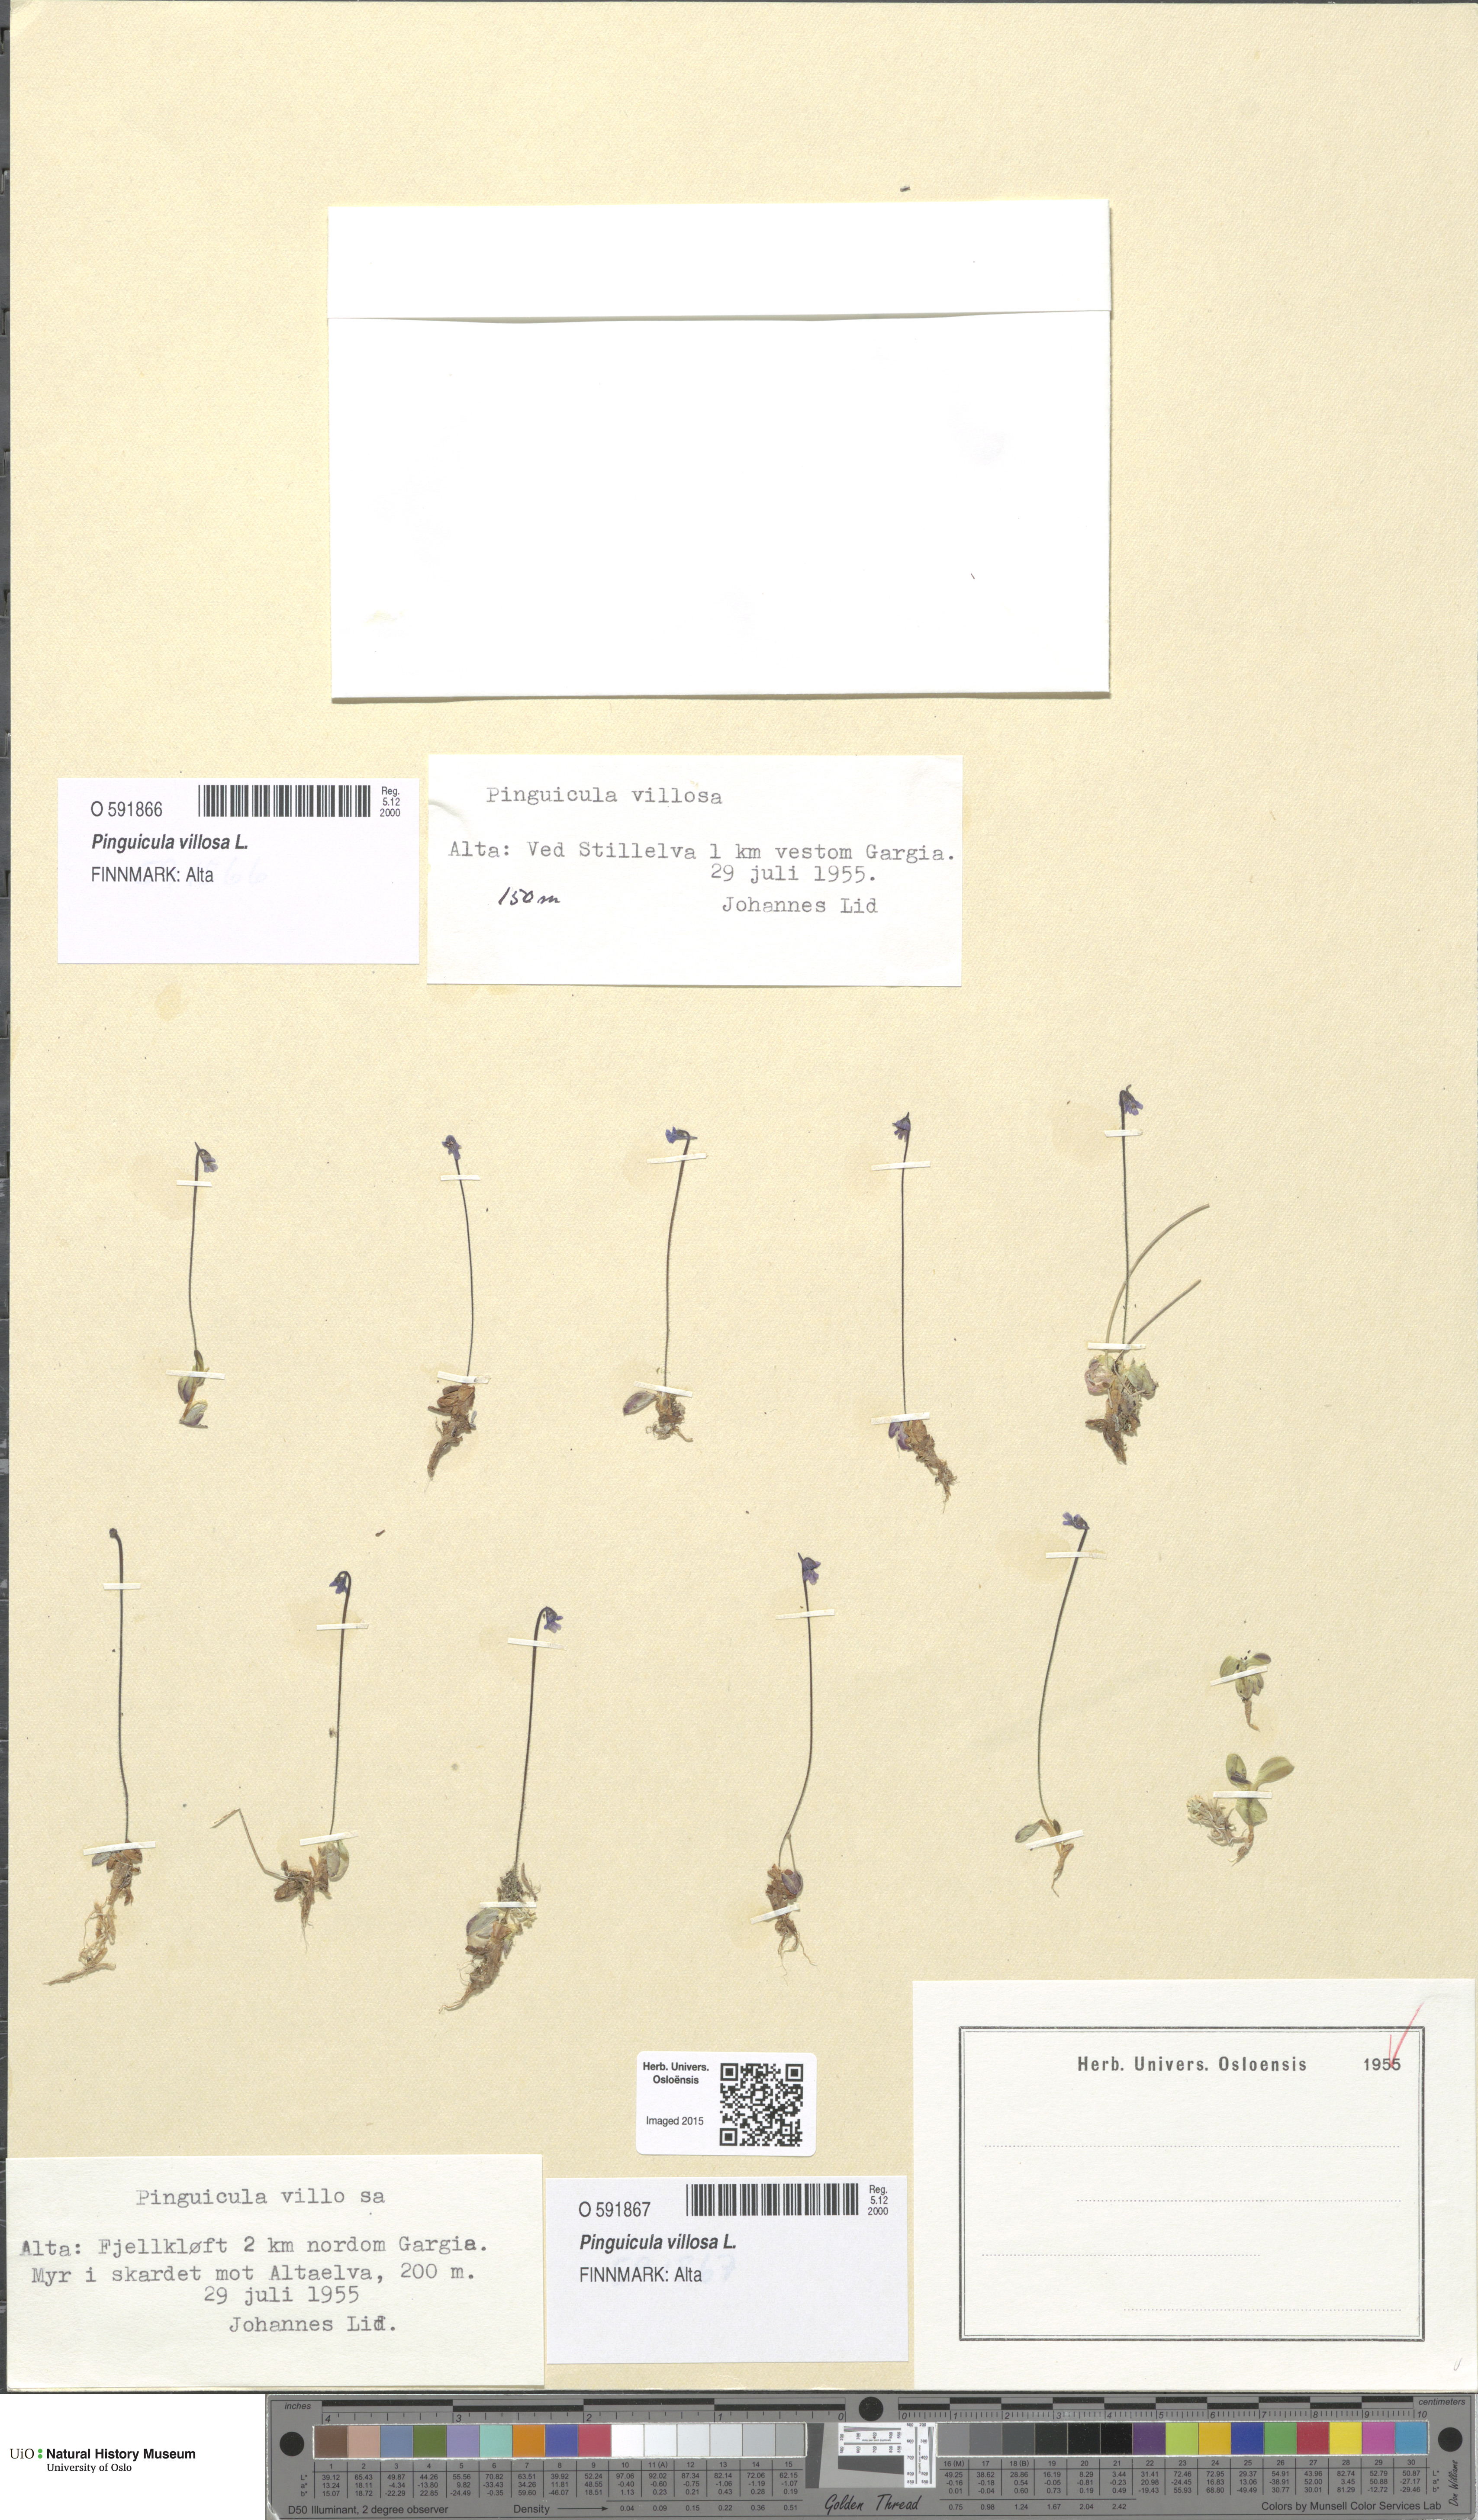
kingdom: Plantae
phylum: Tracheophyta
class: Magnoliopsida
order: Lamiales
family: Lentibulariaceae
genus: Pinguicula
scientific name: Pinguicula villosa
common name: Hairy butterwort
